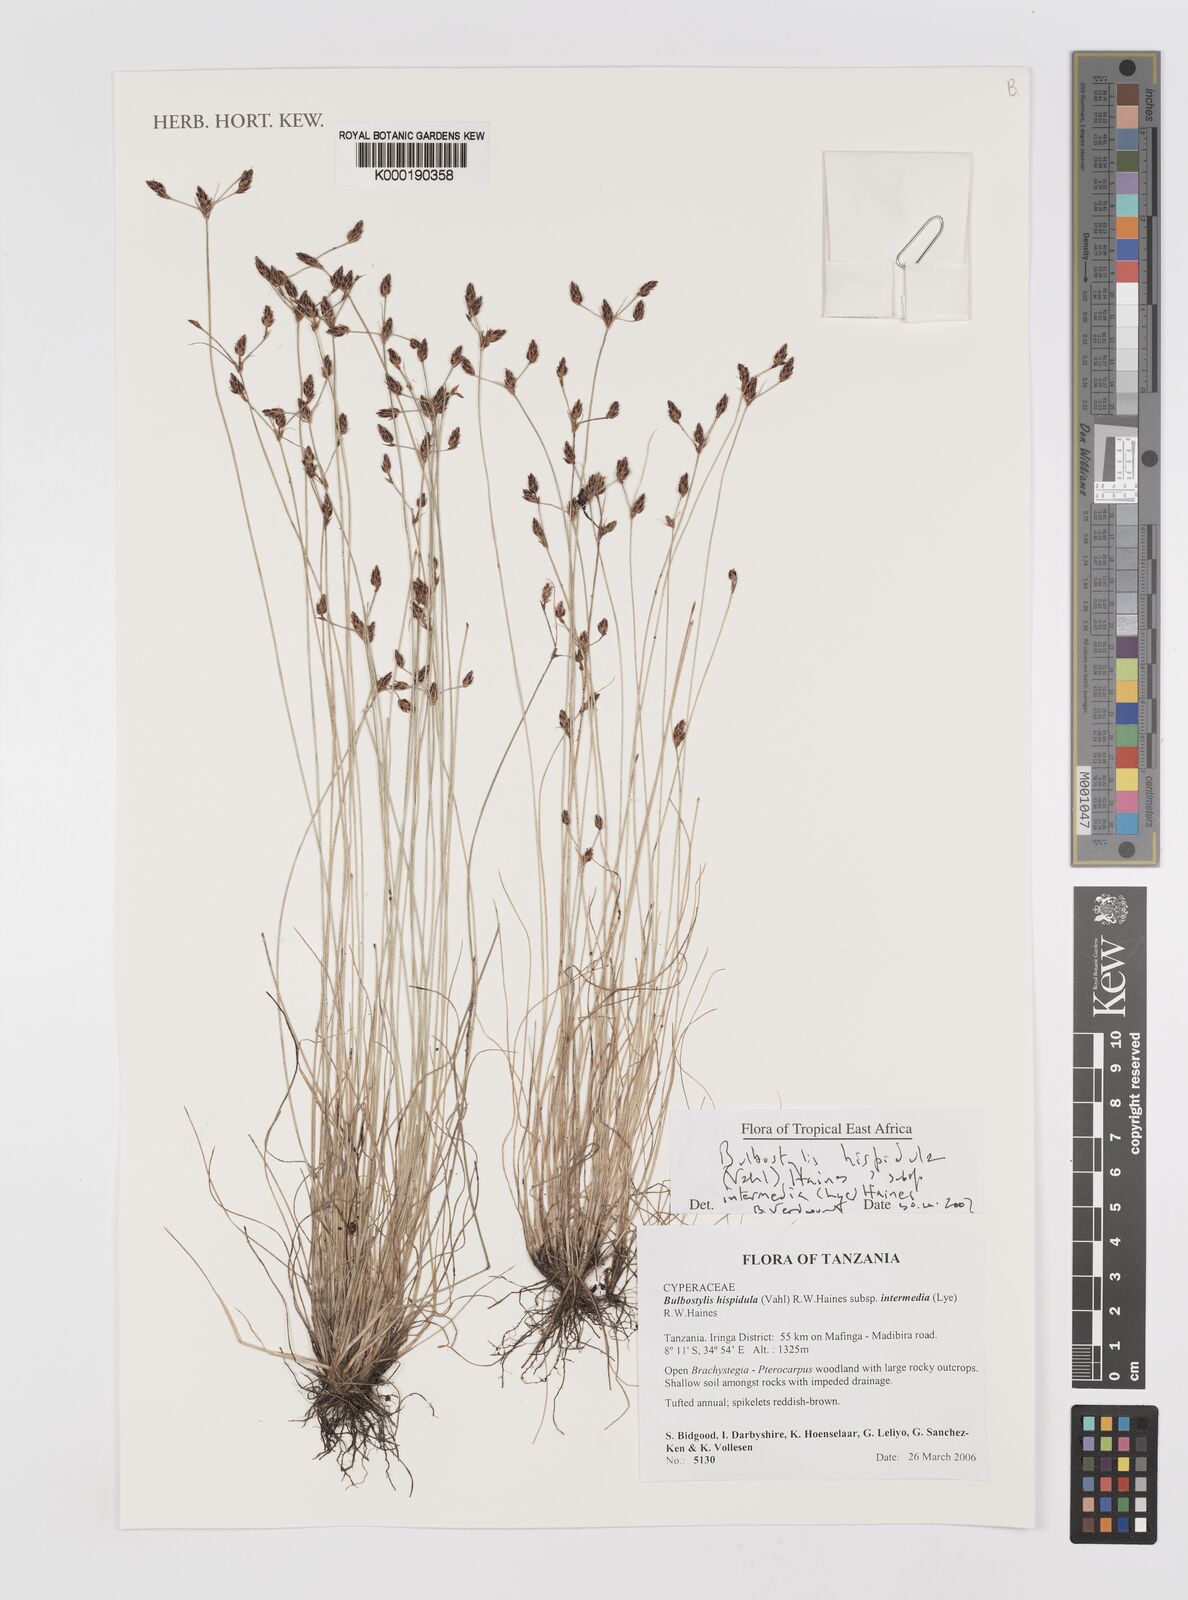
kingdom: Plantae
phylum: Tracheophyta
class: Liliopsida
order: Poales
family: Cyperaceae
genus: Bulbostylis
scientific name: Bulbostylis hispidula
